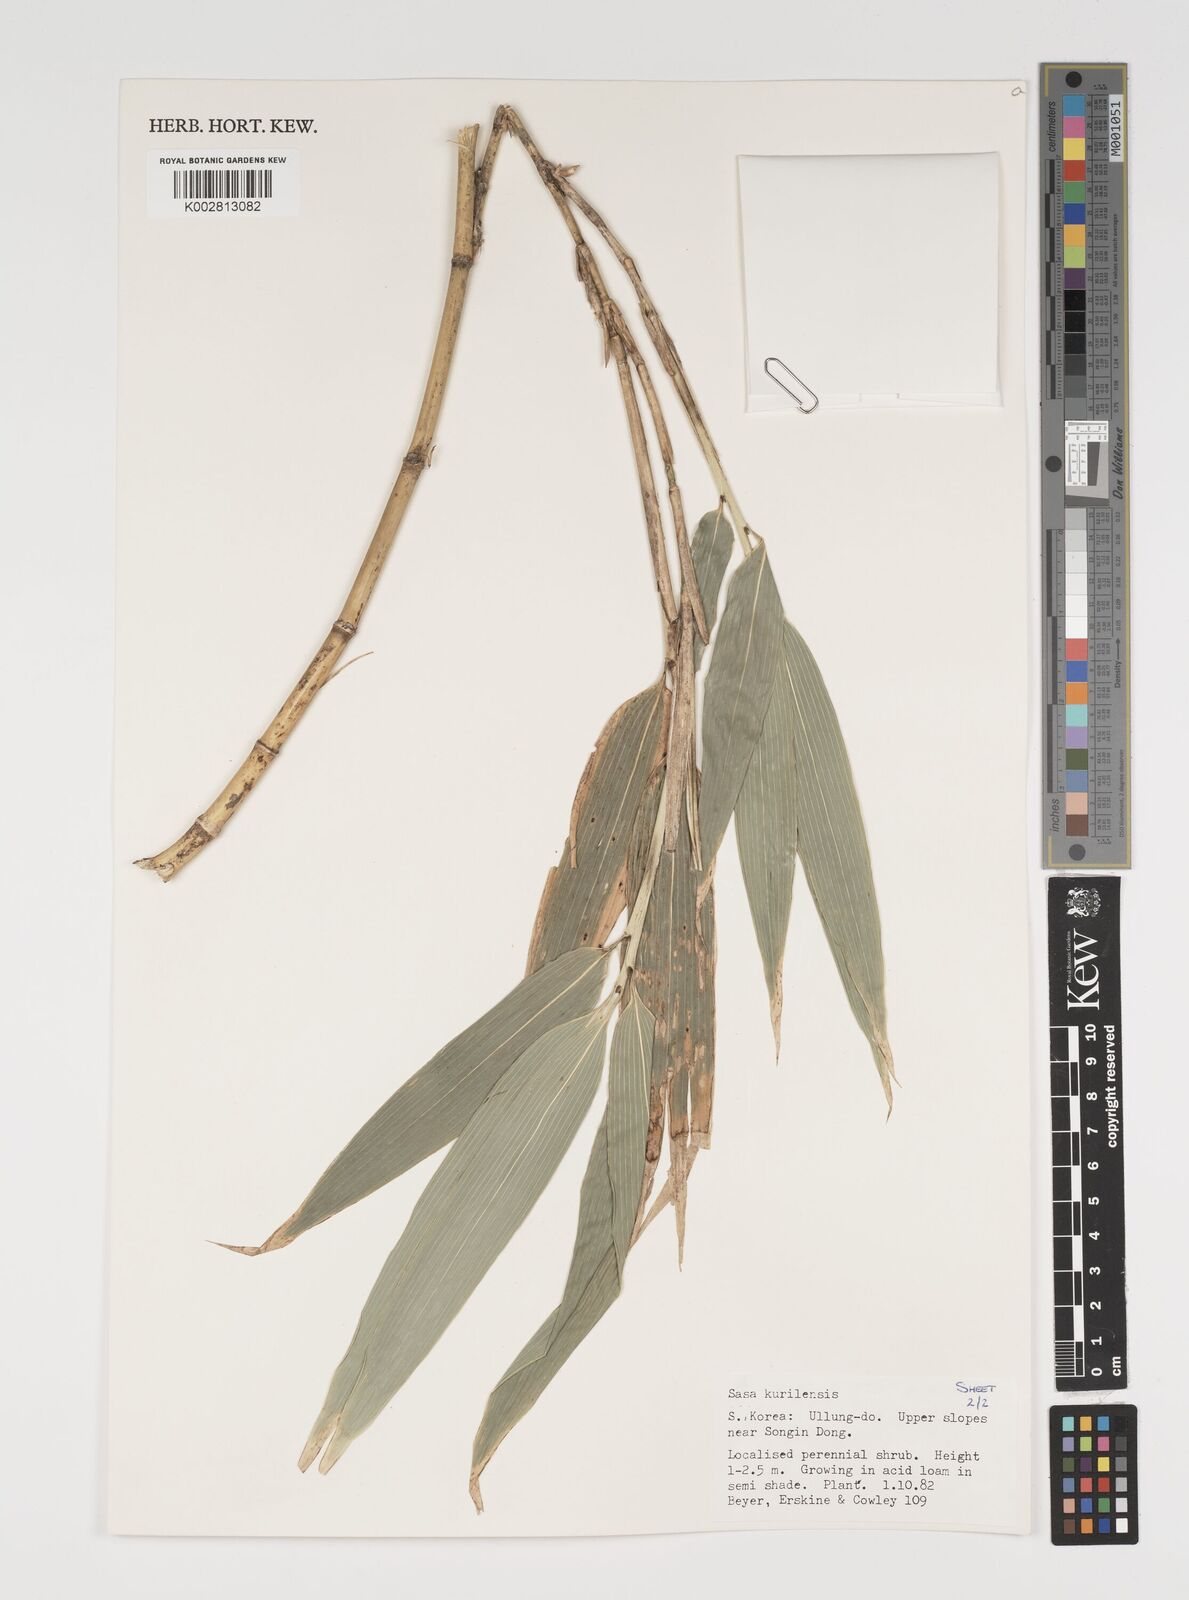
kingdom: Plantae
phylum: Tracheophyta
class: Liliopsida
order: Poales
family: Poaceae
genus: Sasa
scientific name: Sasa kurilensis
